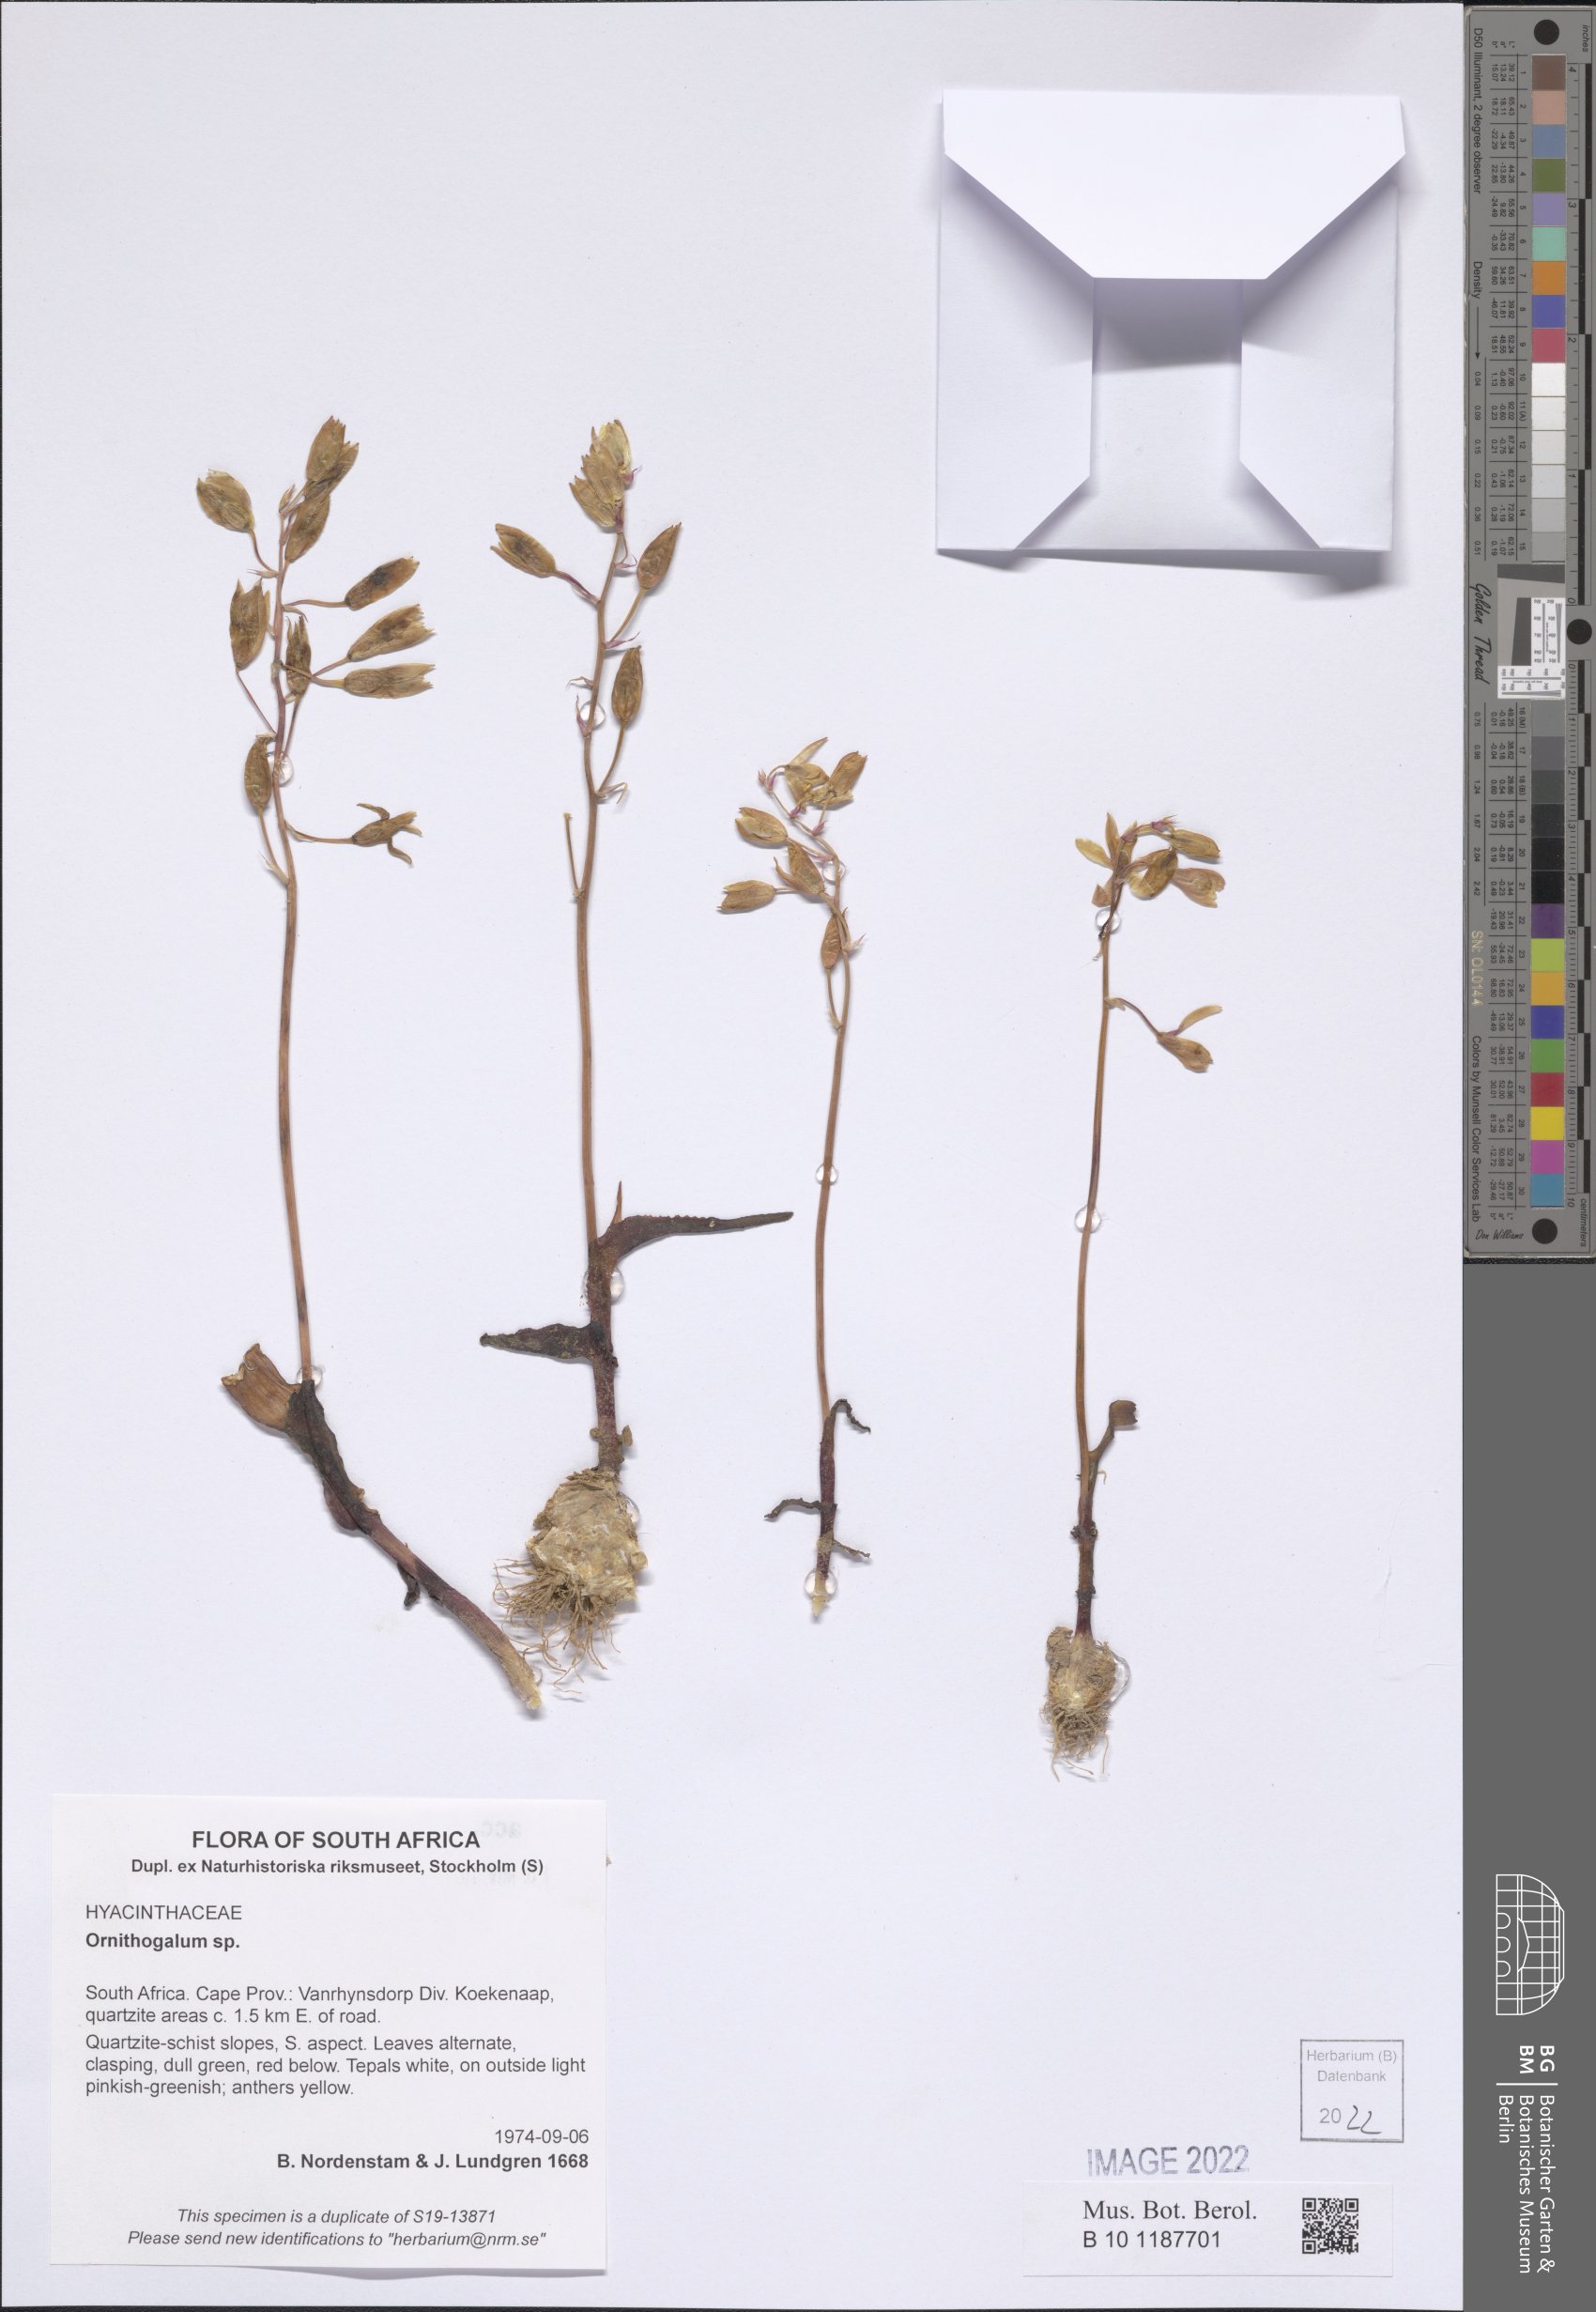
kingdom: Plantae
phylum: Tracheophyta
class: Liliopsida
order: Asparagales
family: Asparagaceae
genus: Ornithogalum
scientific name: Ornithogalum
